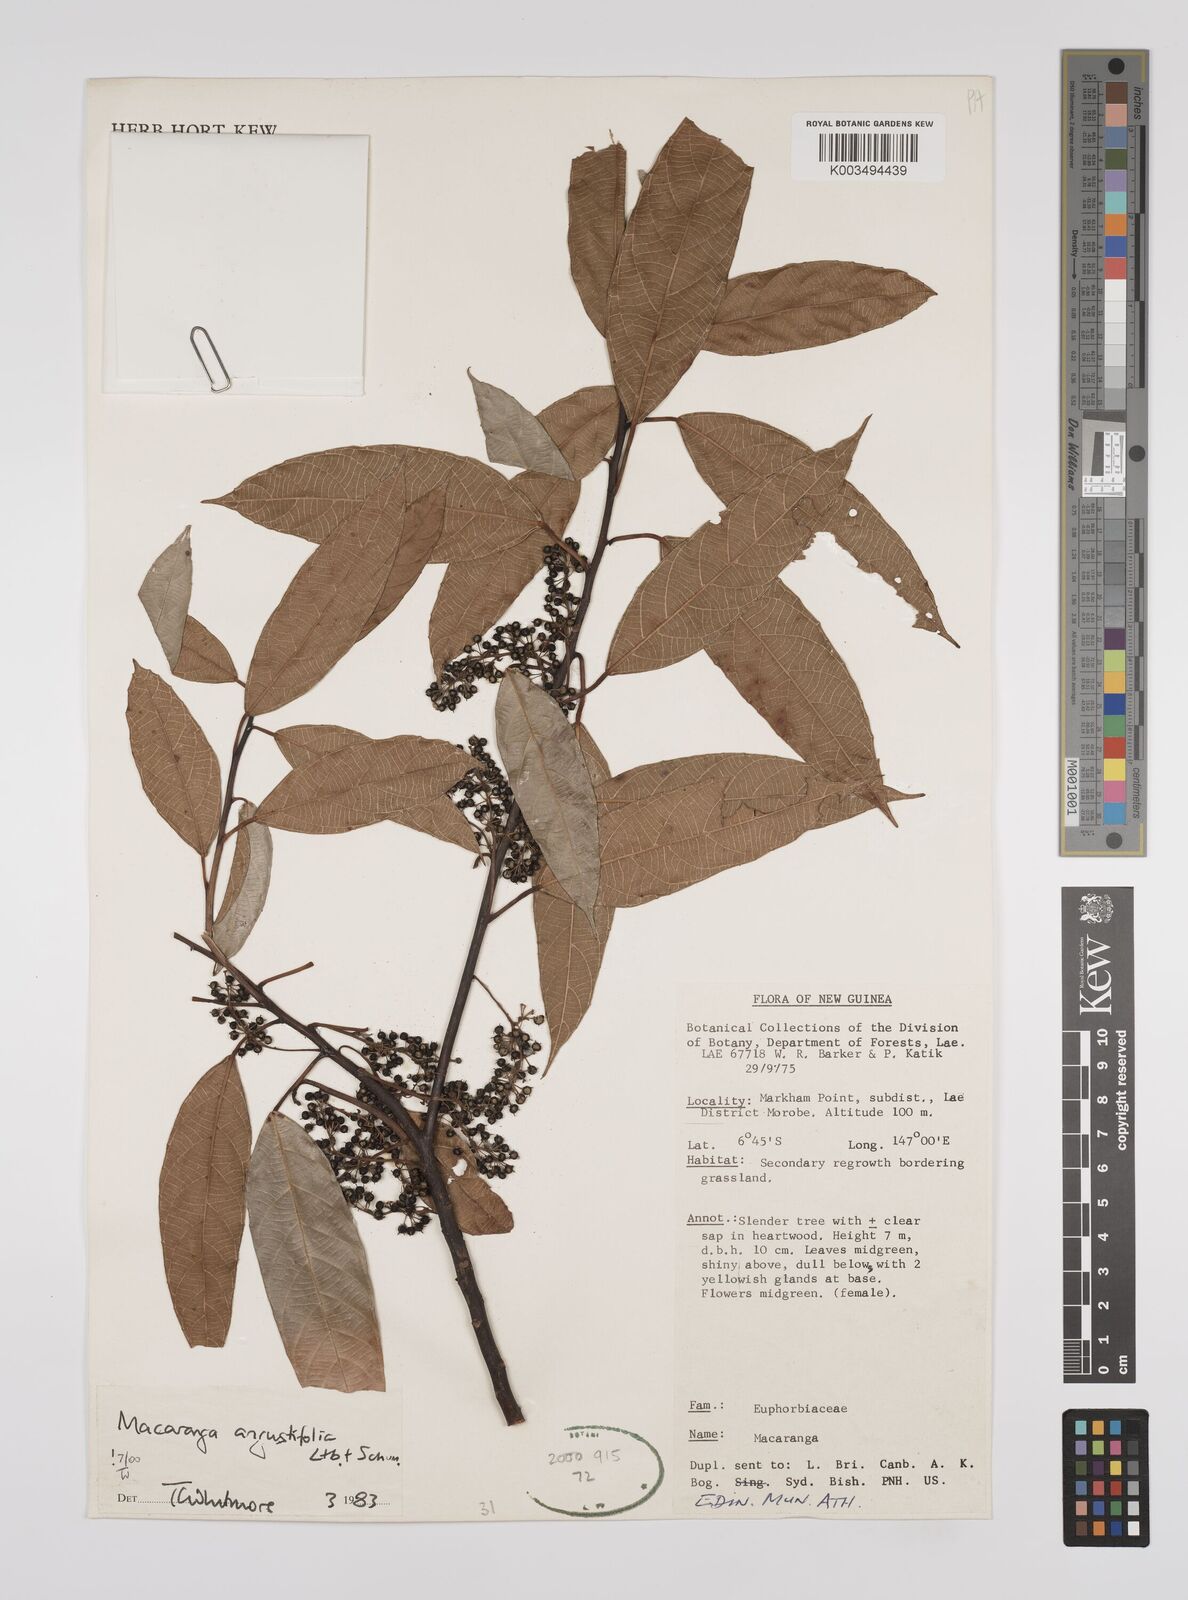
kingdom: Plantae
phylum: Tracheophyta
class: Magnoliopsida
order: Malpighiales
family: Euphorbiaceae
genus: Macaranga
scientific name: Macaranga angustifolia
